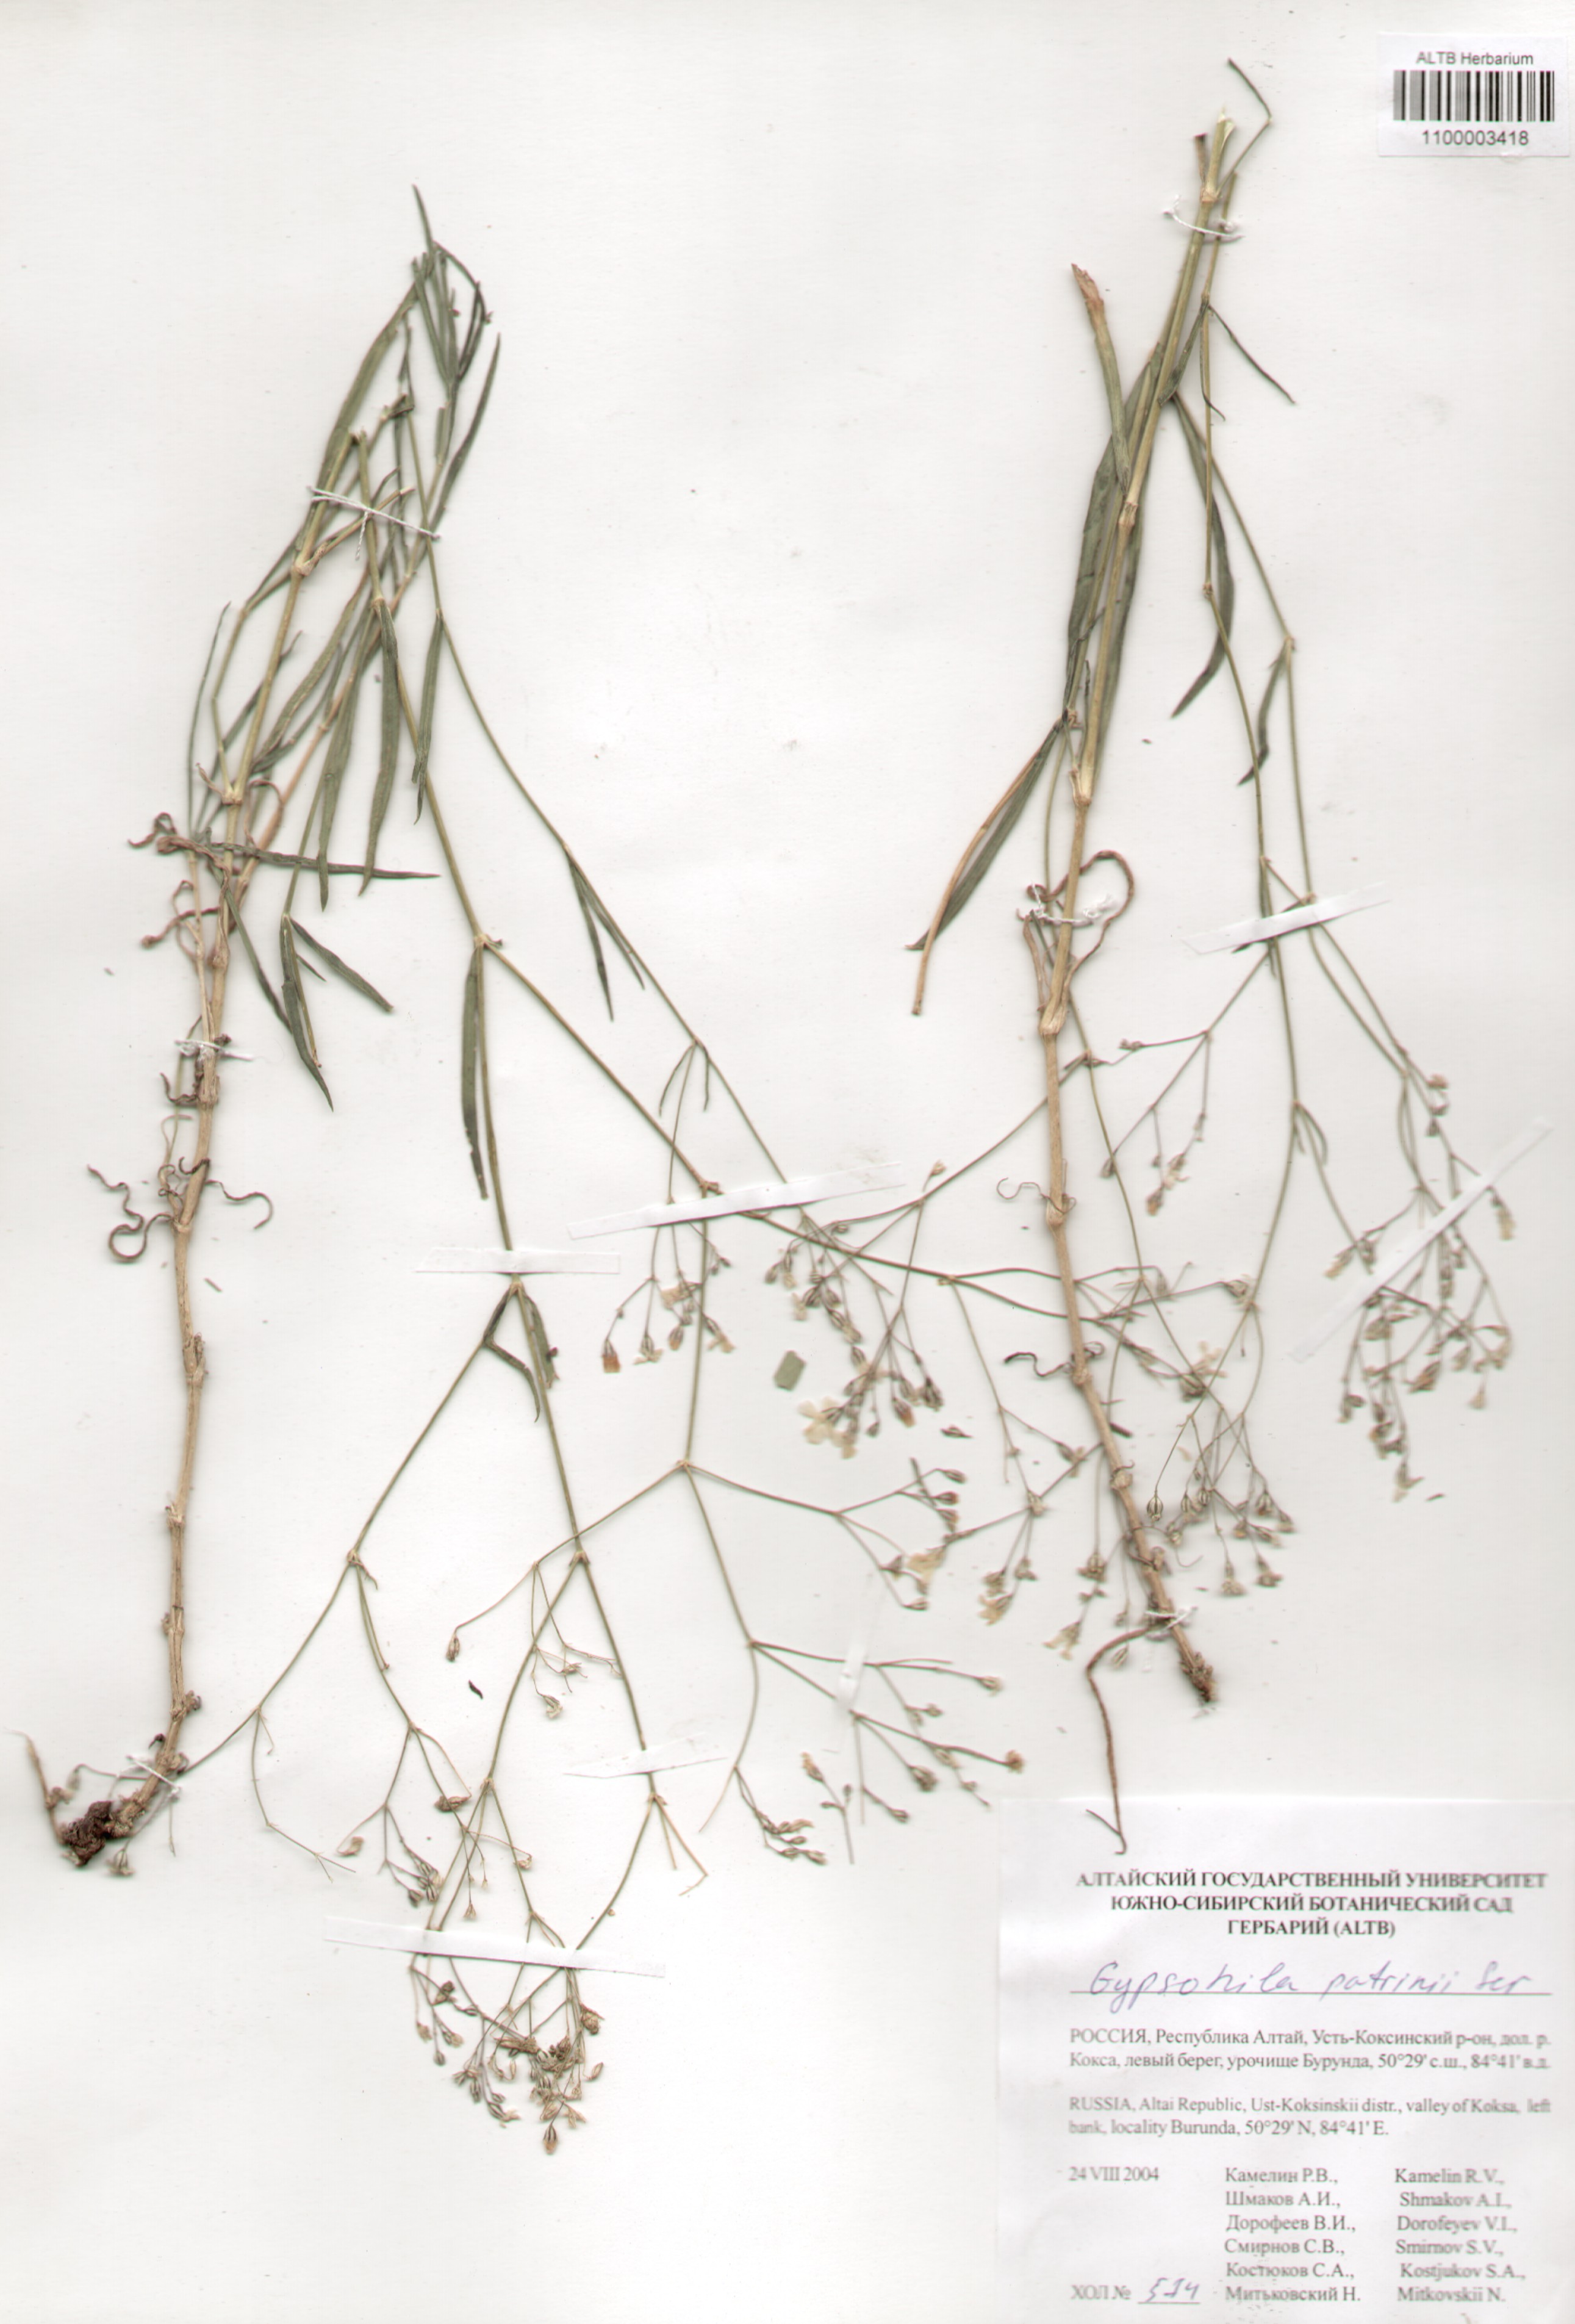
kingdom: Plantae
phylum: Tracheophyta
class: Magnoliopsida
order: Caryophyllales
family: Caryophyllaceae
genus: Gypsophila
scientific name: Gypsophila patrinii
